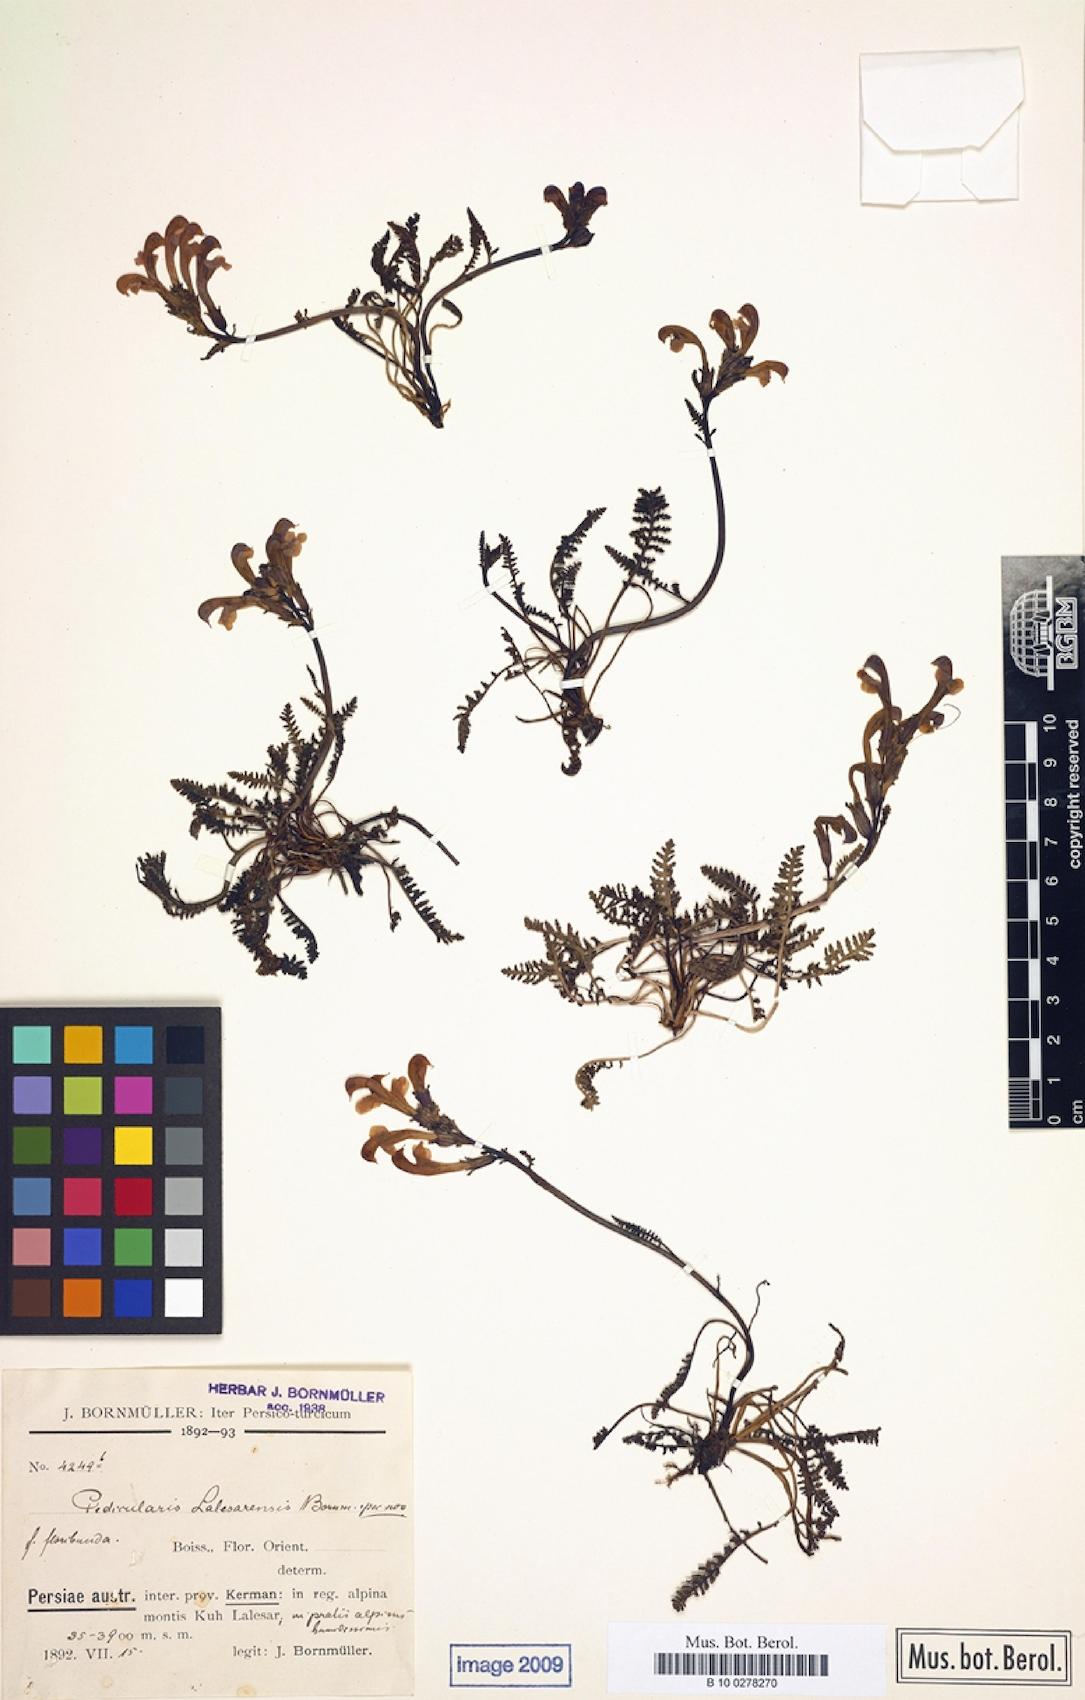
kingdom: Plantae
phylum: Tracheophyta
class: Magnoliopsida
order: Lamiales
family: Orobanchaceae
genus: Pedicularis
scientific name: Pedicularis cabulica
